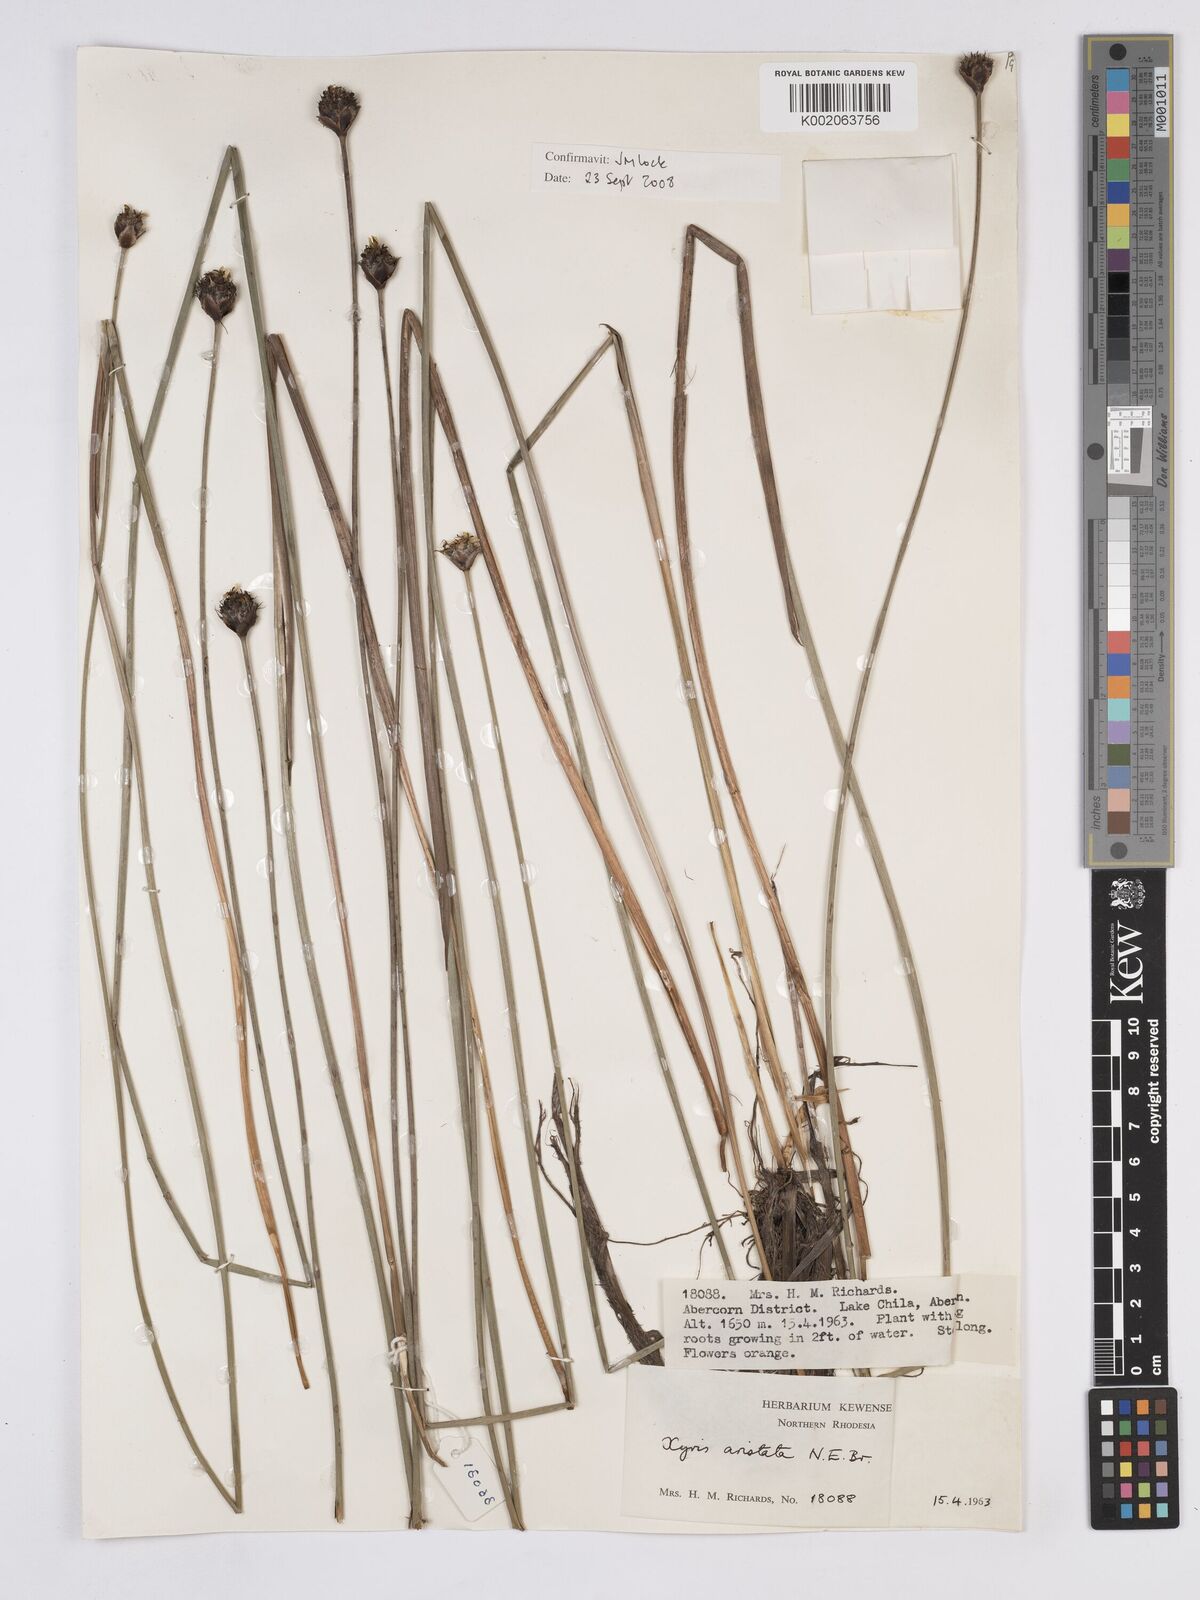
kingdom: Plantae
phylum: Tracheophyta
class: Liliopsida
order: Poales
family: Xyridaceae
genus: Xyris
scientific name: Xyris aristata
